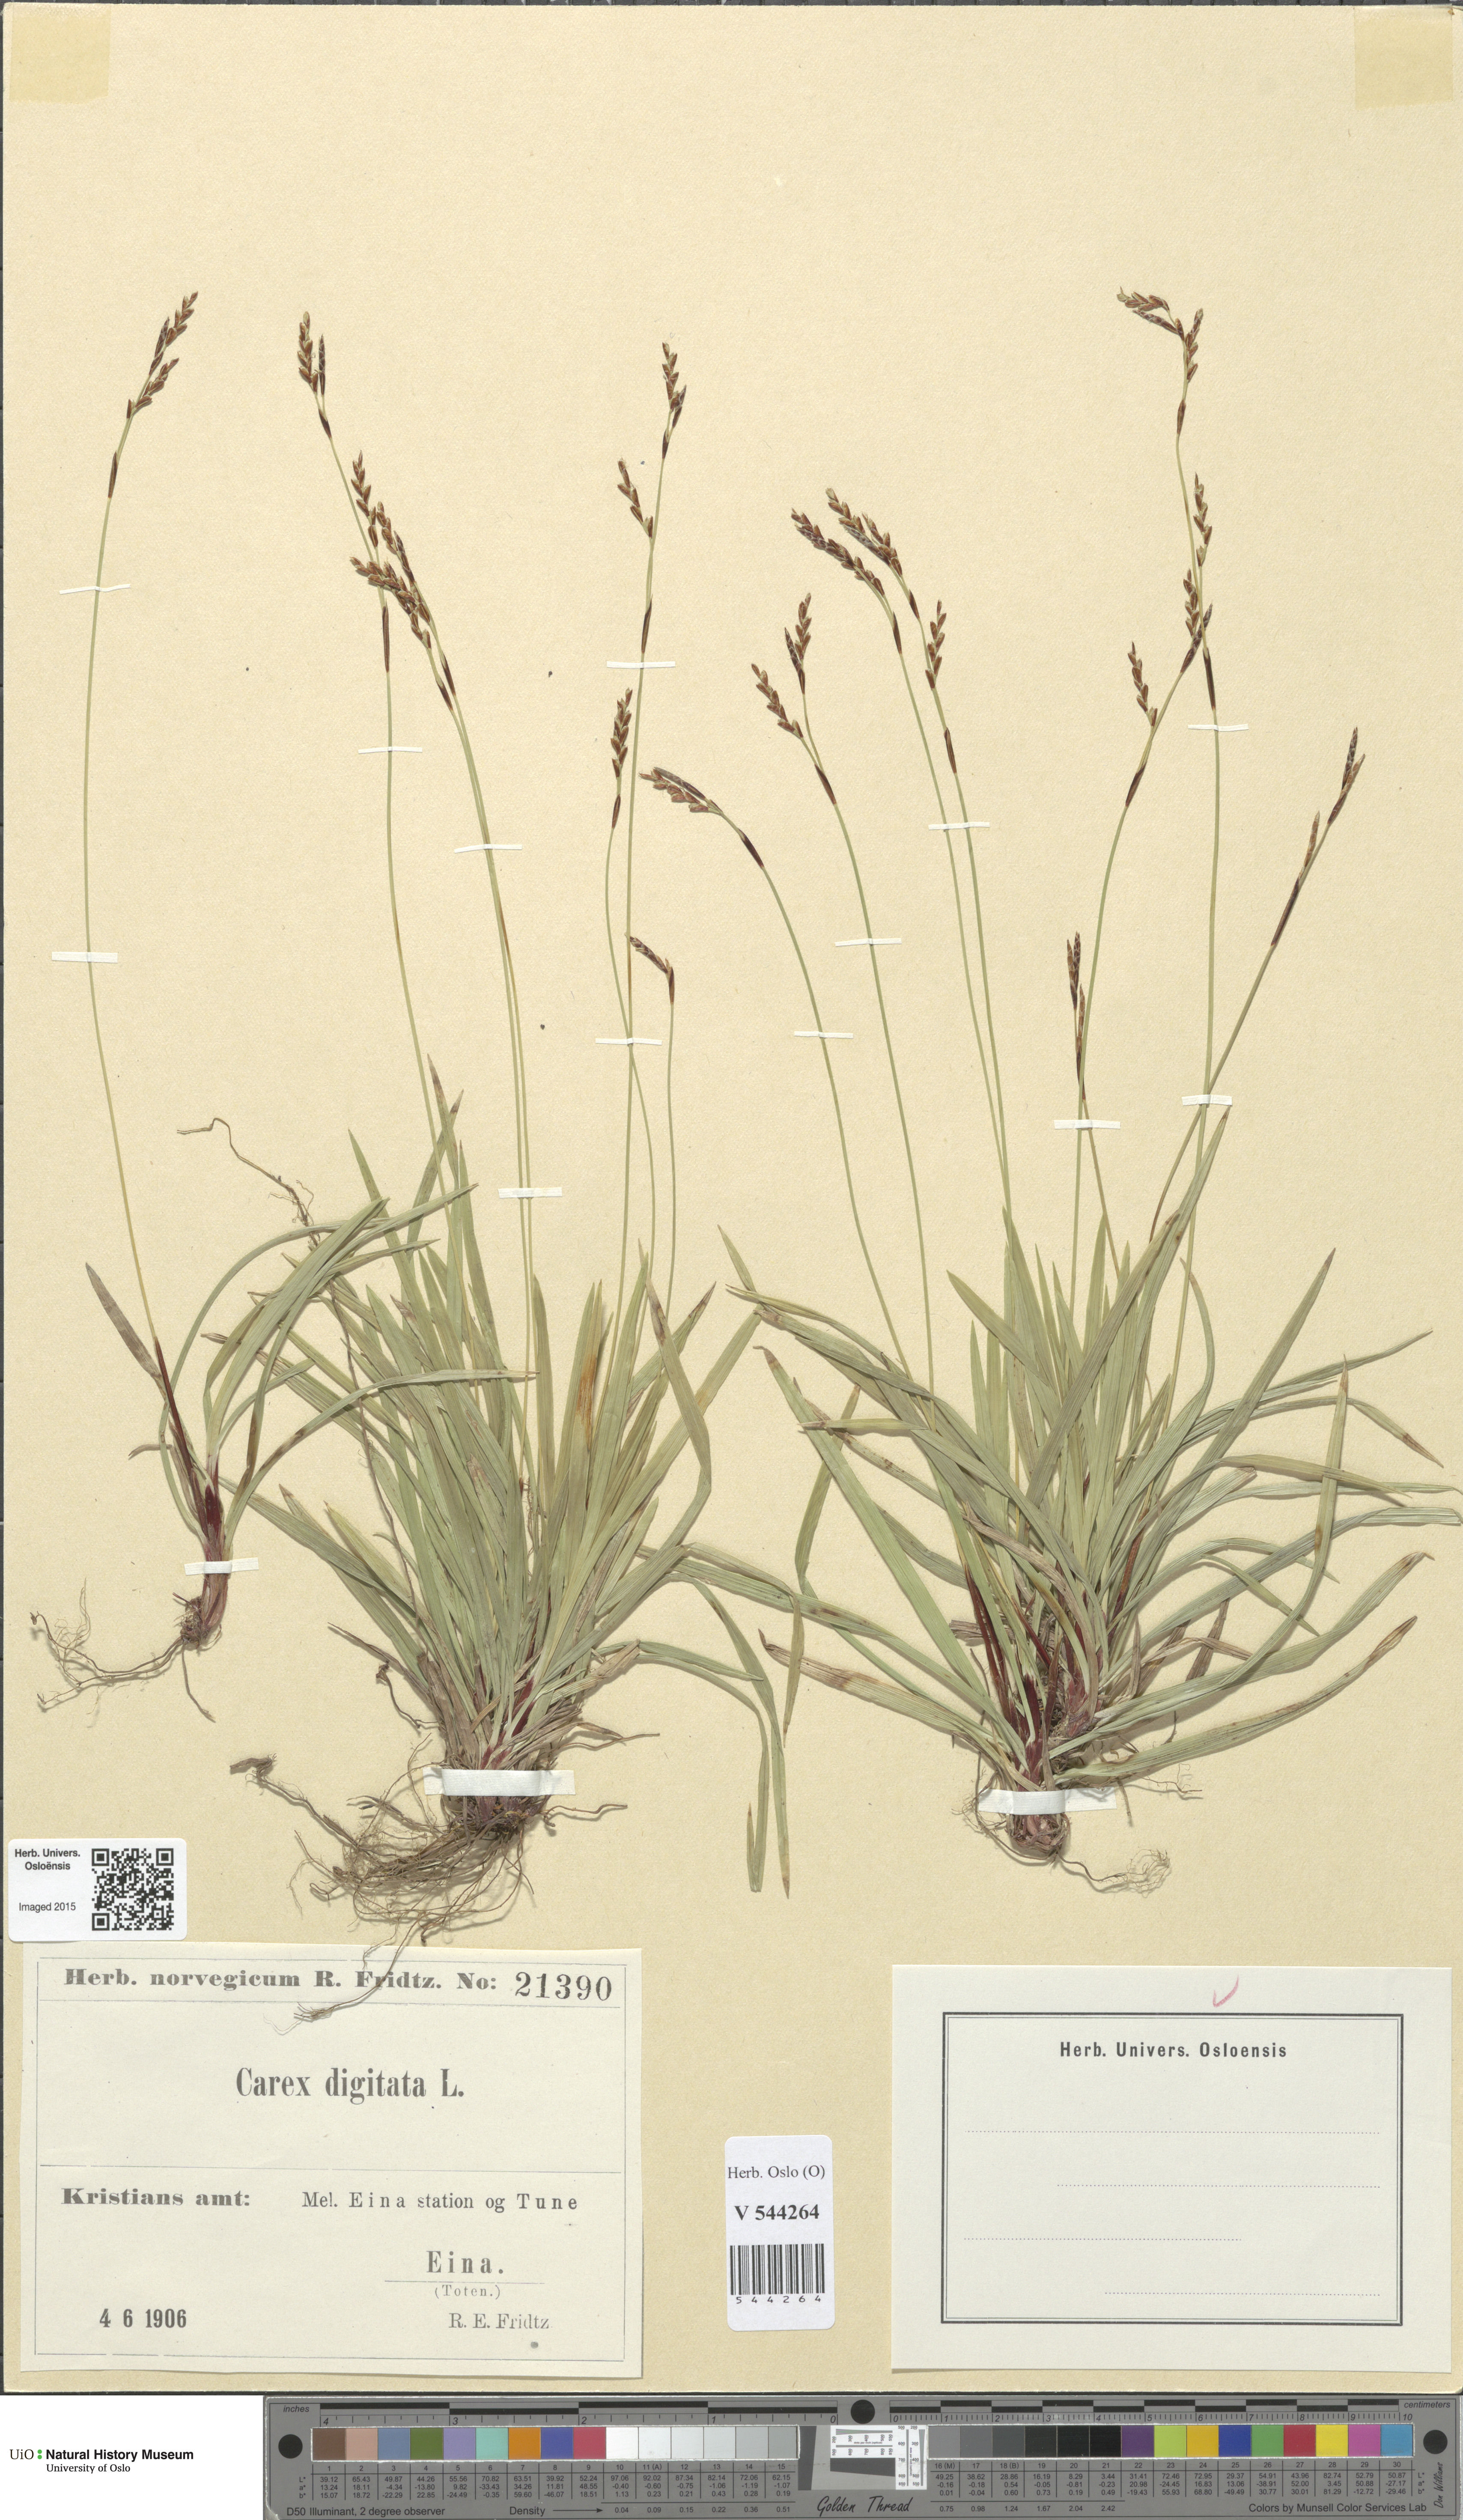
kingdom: Plantae
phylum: Tracheophyta
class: Liliopsida
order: Poales
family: Cyperaceae
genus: Carex
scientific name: Carex digitata
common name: Fingered sedge
